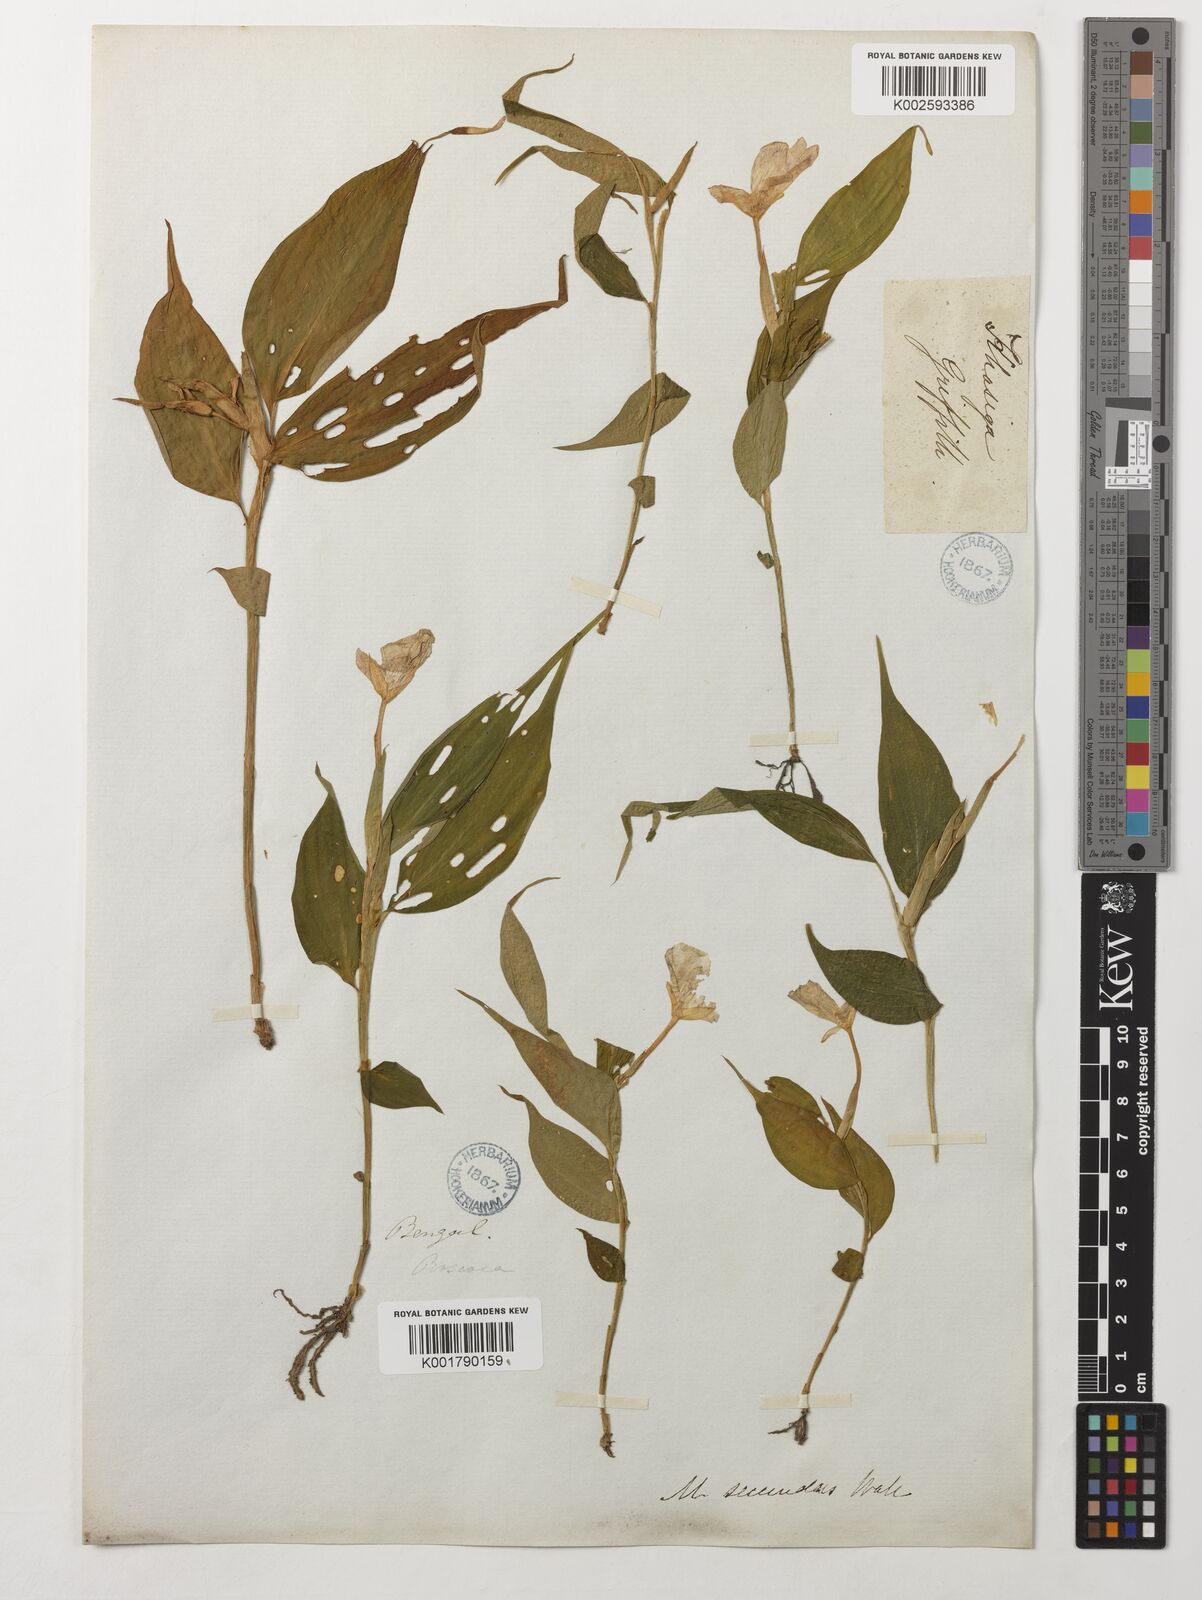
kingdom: Plantae
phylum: Tracheophyta
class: Liliopsida
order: Zingiberales
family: Zingiberaceae
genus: Caulokaempferia
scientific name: Caulokaempferia secunda
